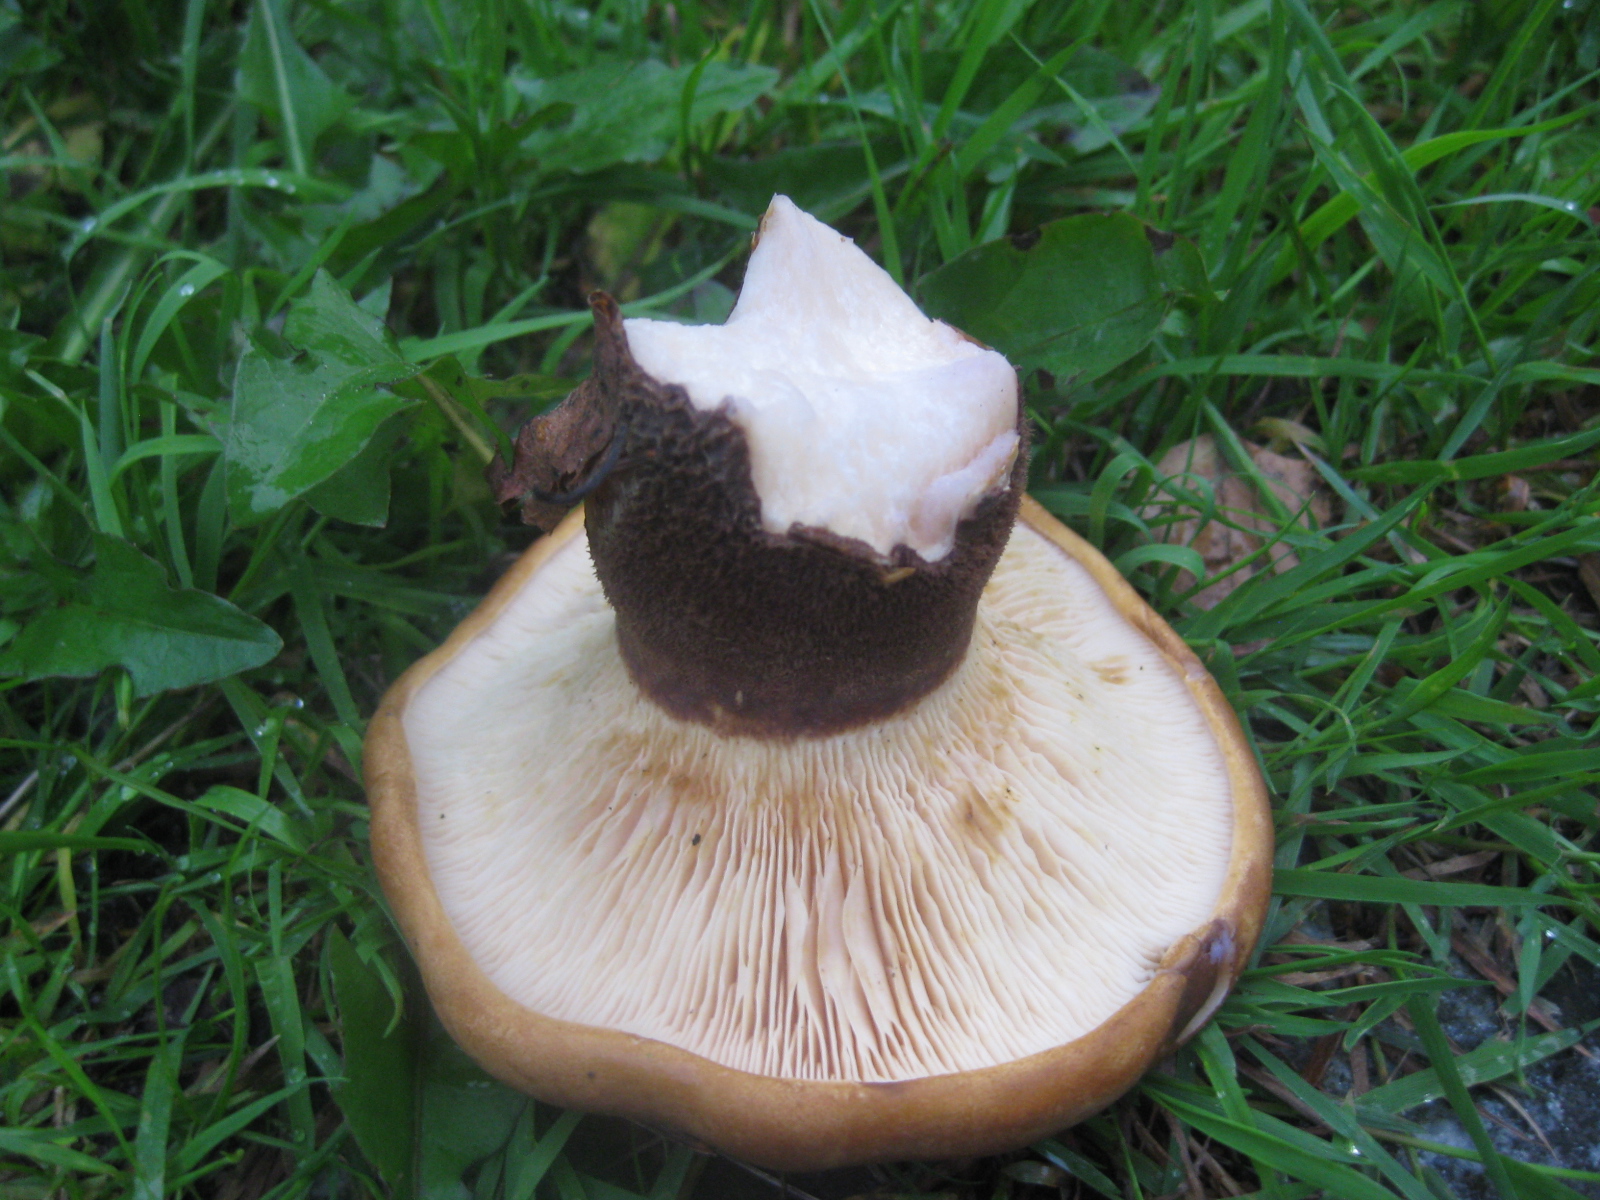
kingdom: Fungi
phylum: Basidiomycota
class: Agaricomycetes
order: Boletales
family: Tapinellaceae
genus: Tapinella
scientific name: Tapinella atrotomentosa
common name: sortfiltet viftesvamp
